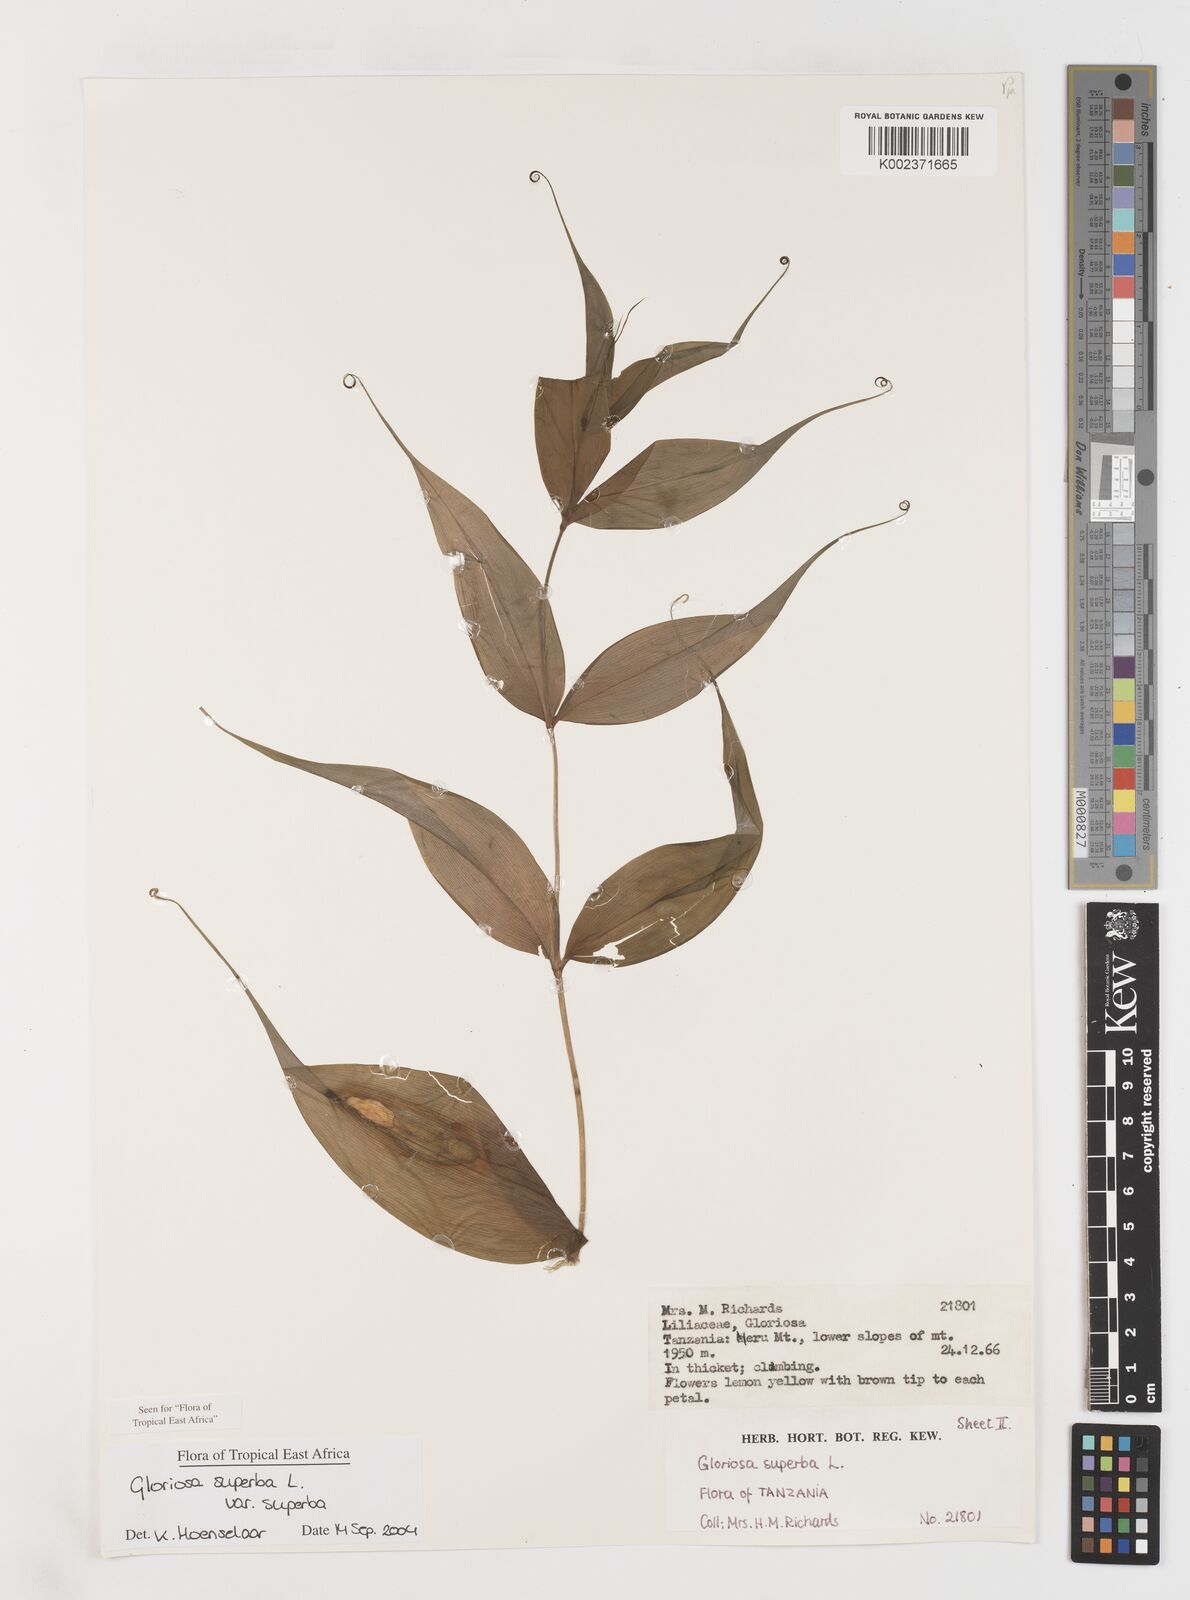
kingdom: Plantae
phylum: Tracheophyta
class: Liliopsida
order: Liliales
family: Colchicaceae
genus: Gloriosa
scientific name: Gloriosa simplex
